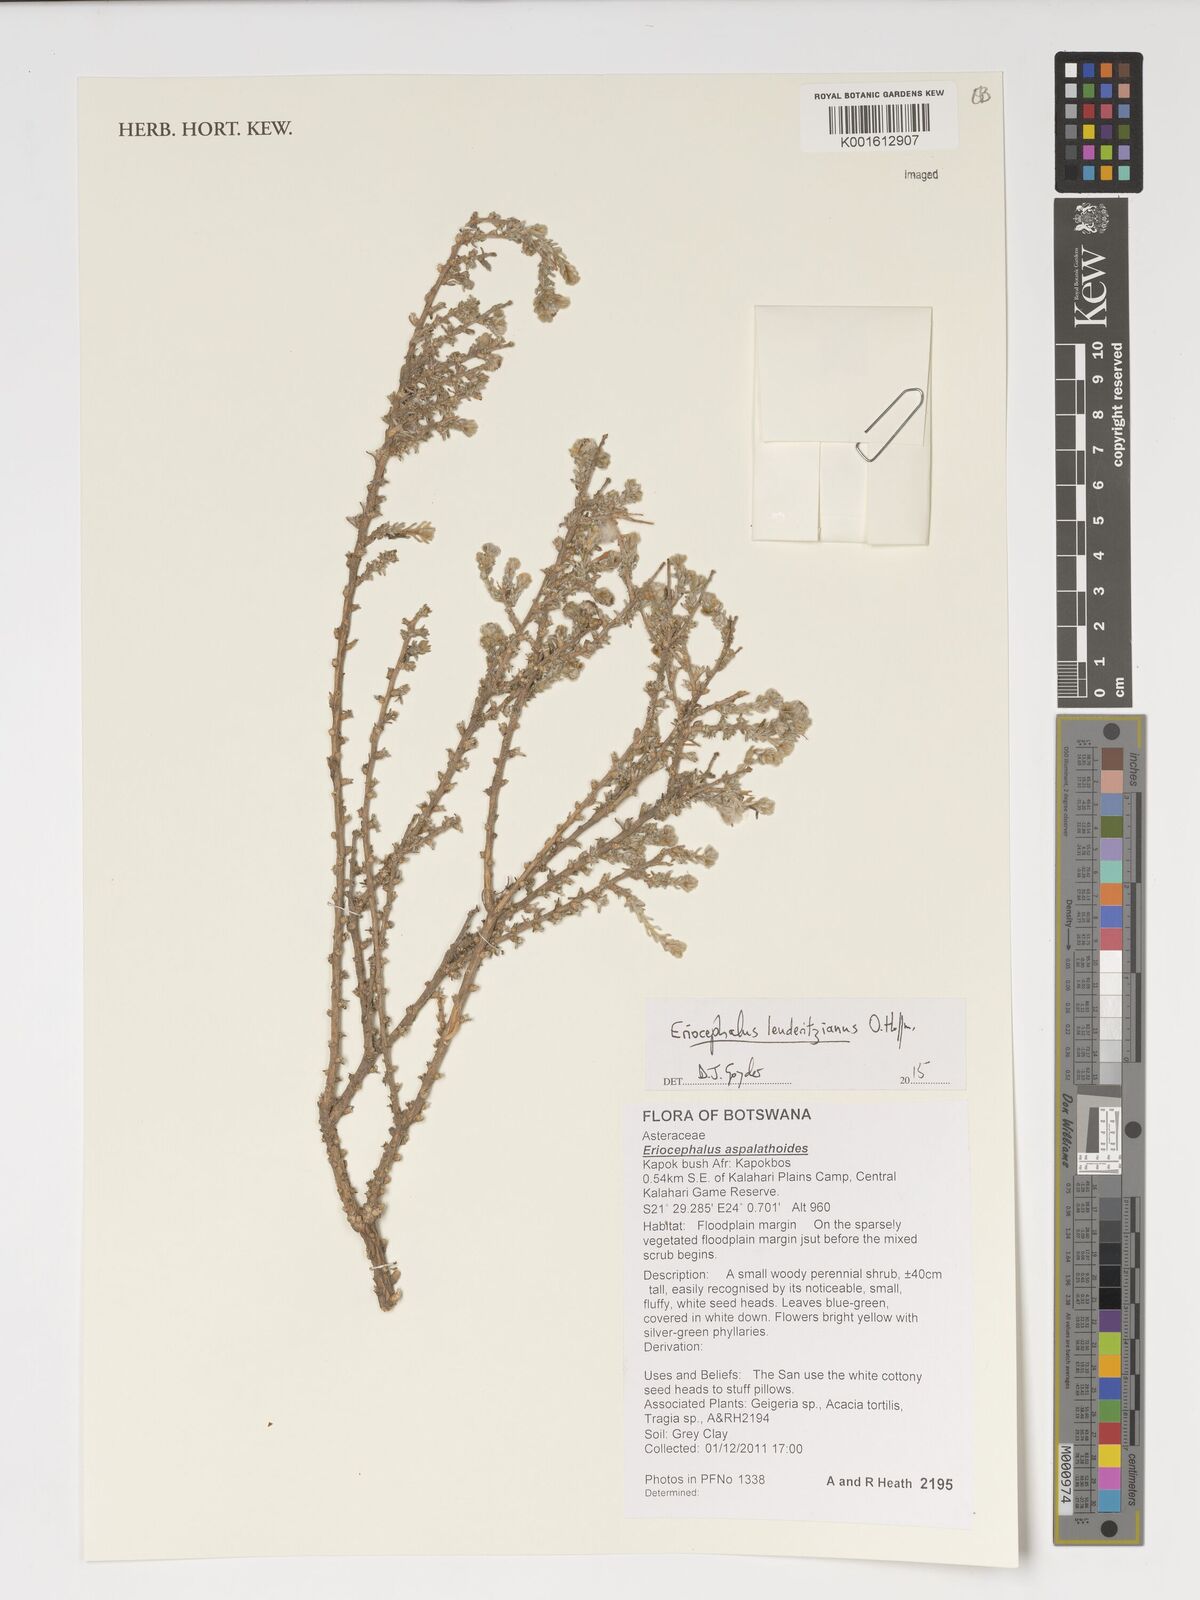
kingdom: Plantae
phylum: Tracheophyta
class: Magnoliopsida
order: Asterales
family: Asteraceae
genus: Eriocephalus
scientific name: Eriocephalus microphyllus
